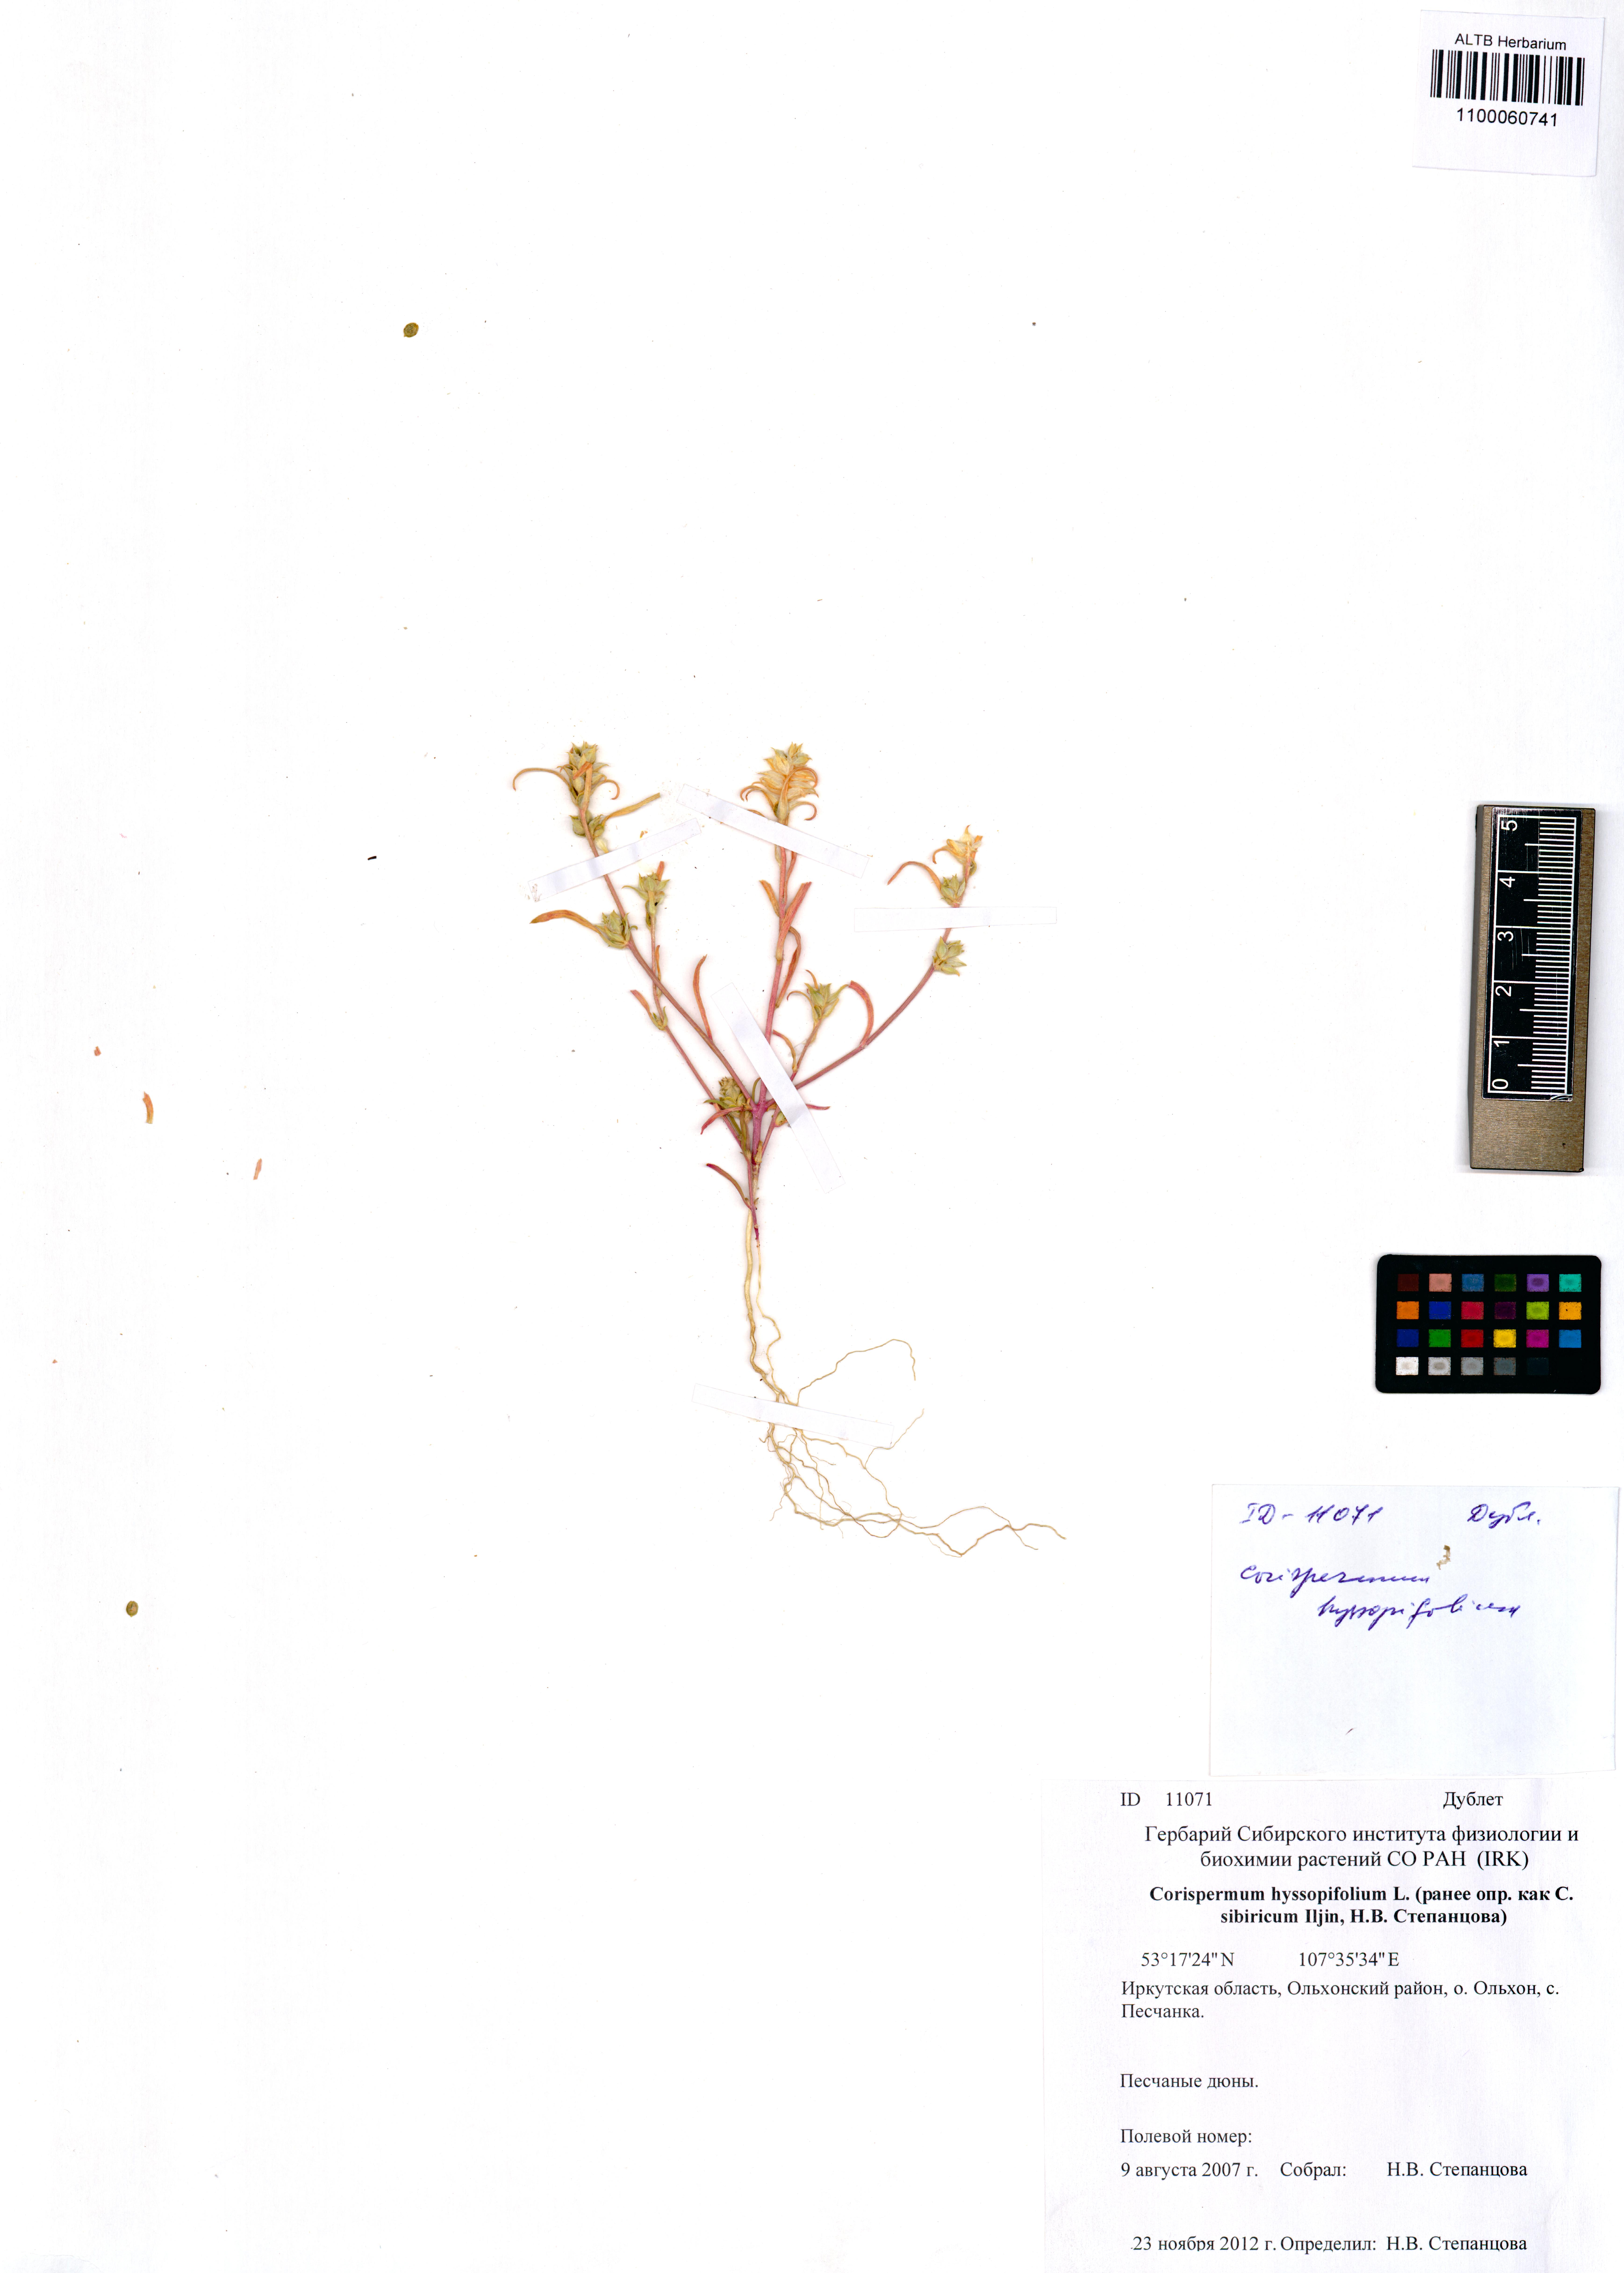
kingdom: Plantae
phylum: Tracheophyta
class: Magnoliopsida
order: Caryophyllales
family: Amaranthaceae
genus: Corispermum
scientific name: Corispermum hyssopifolium
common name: Bugseed
